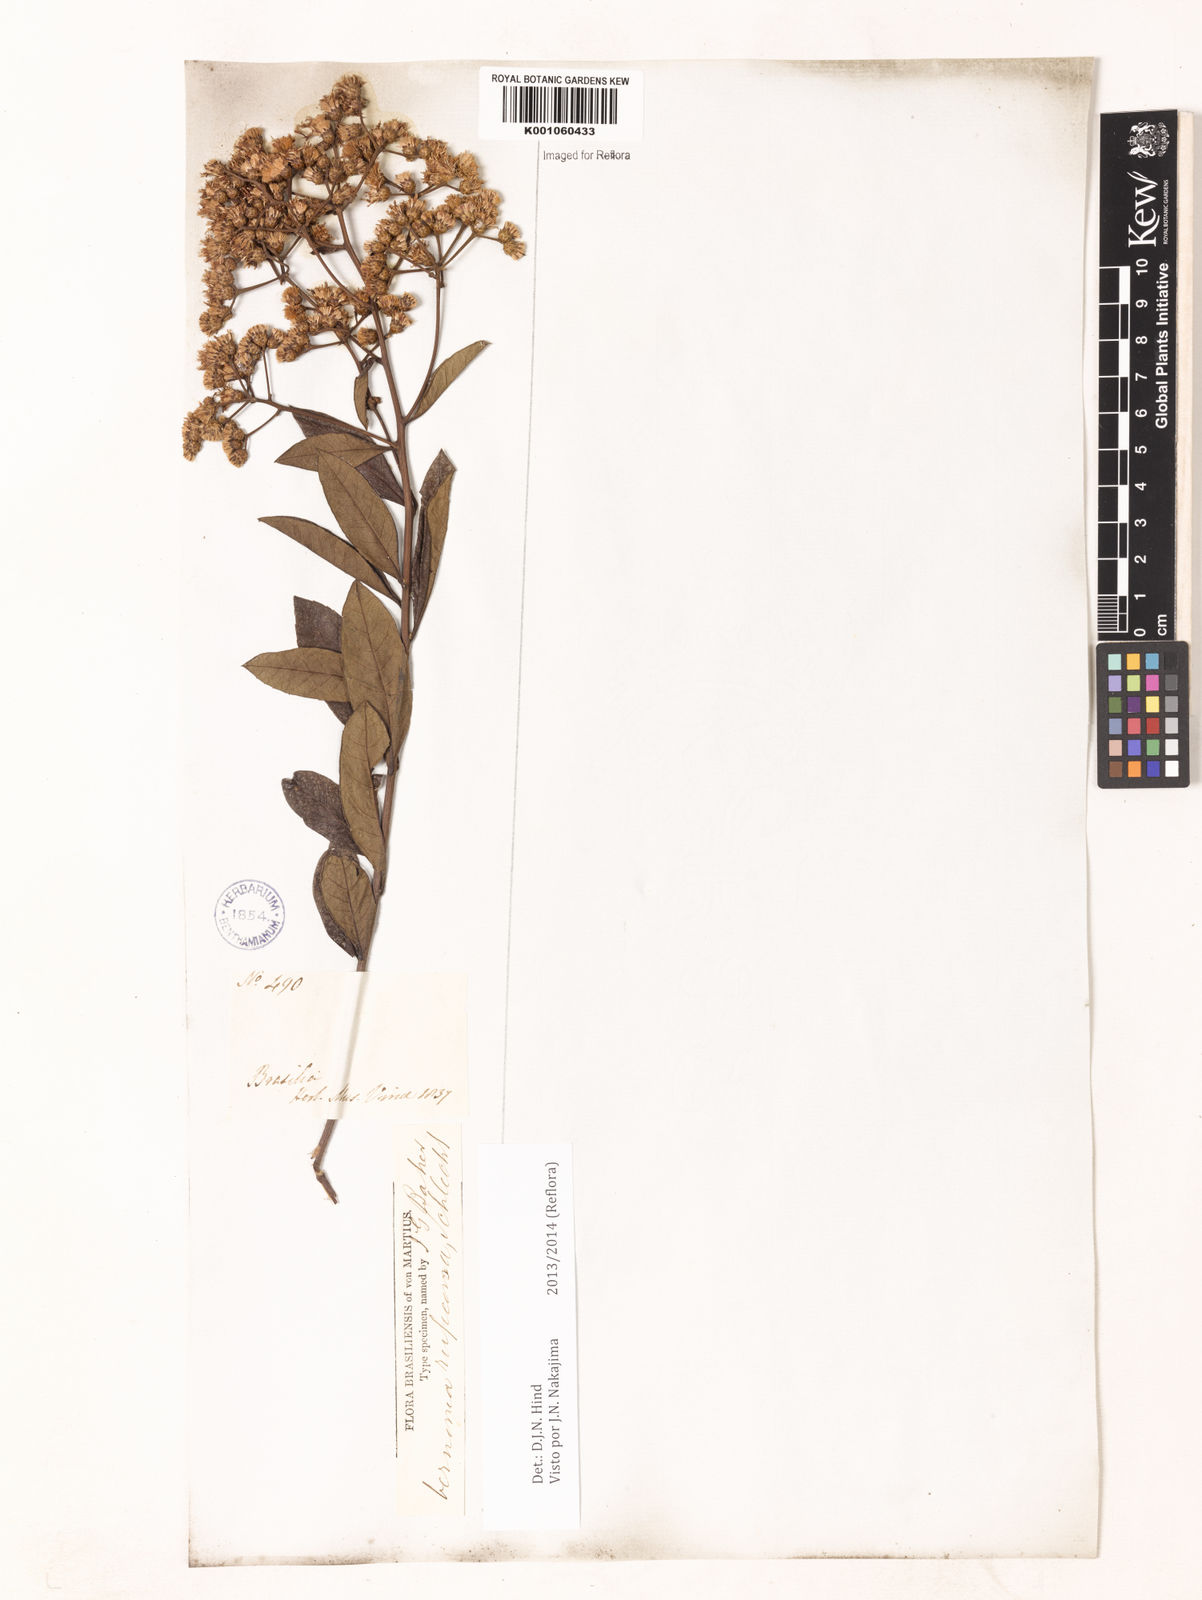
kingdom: Plantae
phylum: Tracheophyta
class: Magnoliopsida
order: Asterales
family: Asteraceae
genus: Vernonia
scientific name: Vernonia
